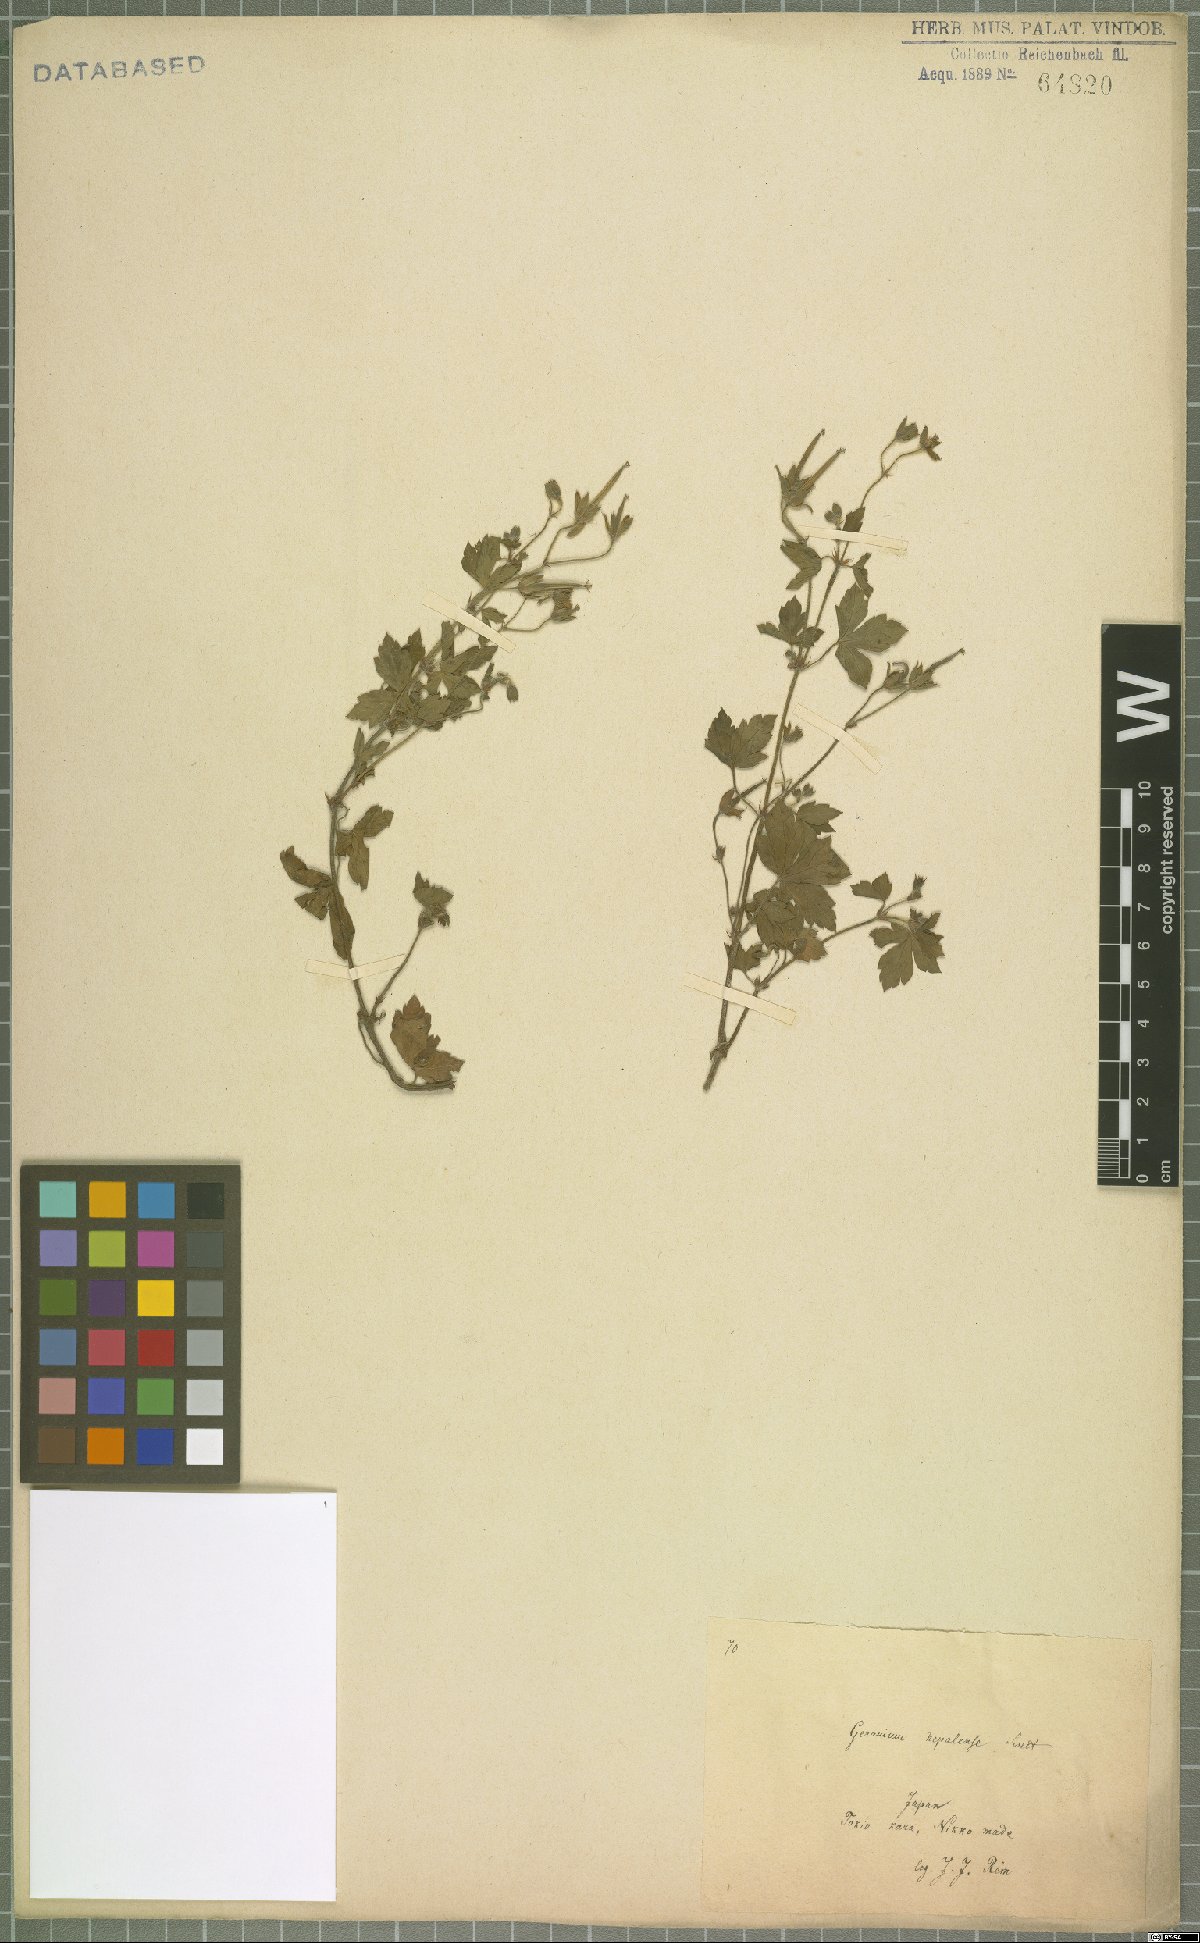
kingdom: Plantae
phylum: Tracheophyta
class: Magnoliopsida
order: Geraniales
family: Geraniaceae
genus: Geranium
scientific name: Geranium thunbergii
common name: Dewdrop crane's-bill
